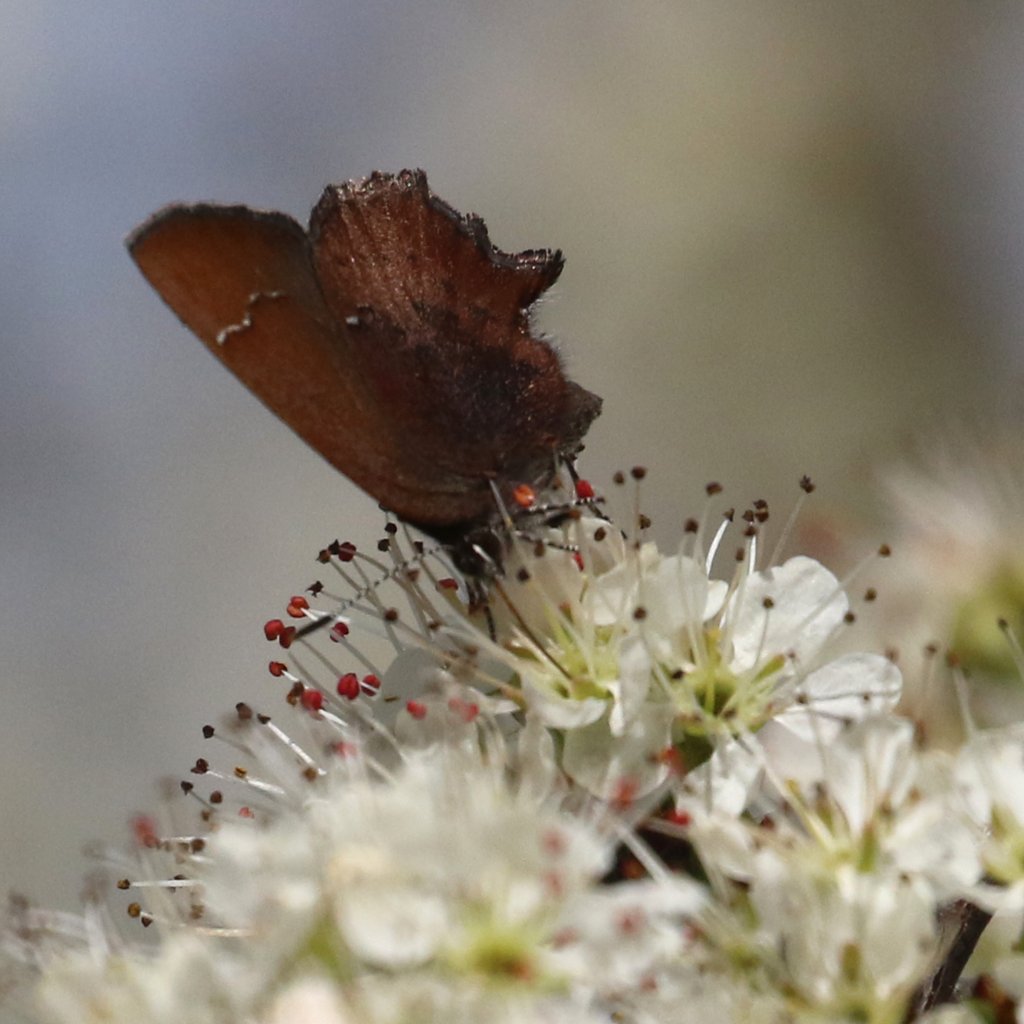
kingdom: Animalia
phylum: Arthropoda
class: Insecta
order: Lepidoptera
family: Lycaenidae
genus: Incisalia
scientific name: Incisalia irioides
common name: Brown Elfin
